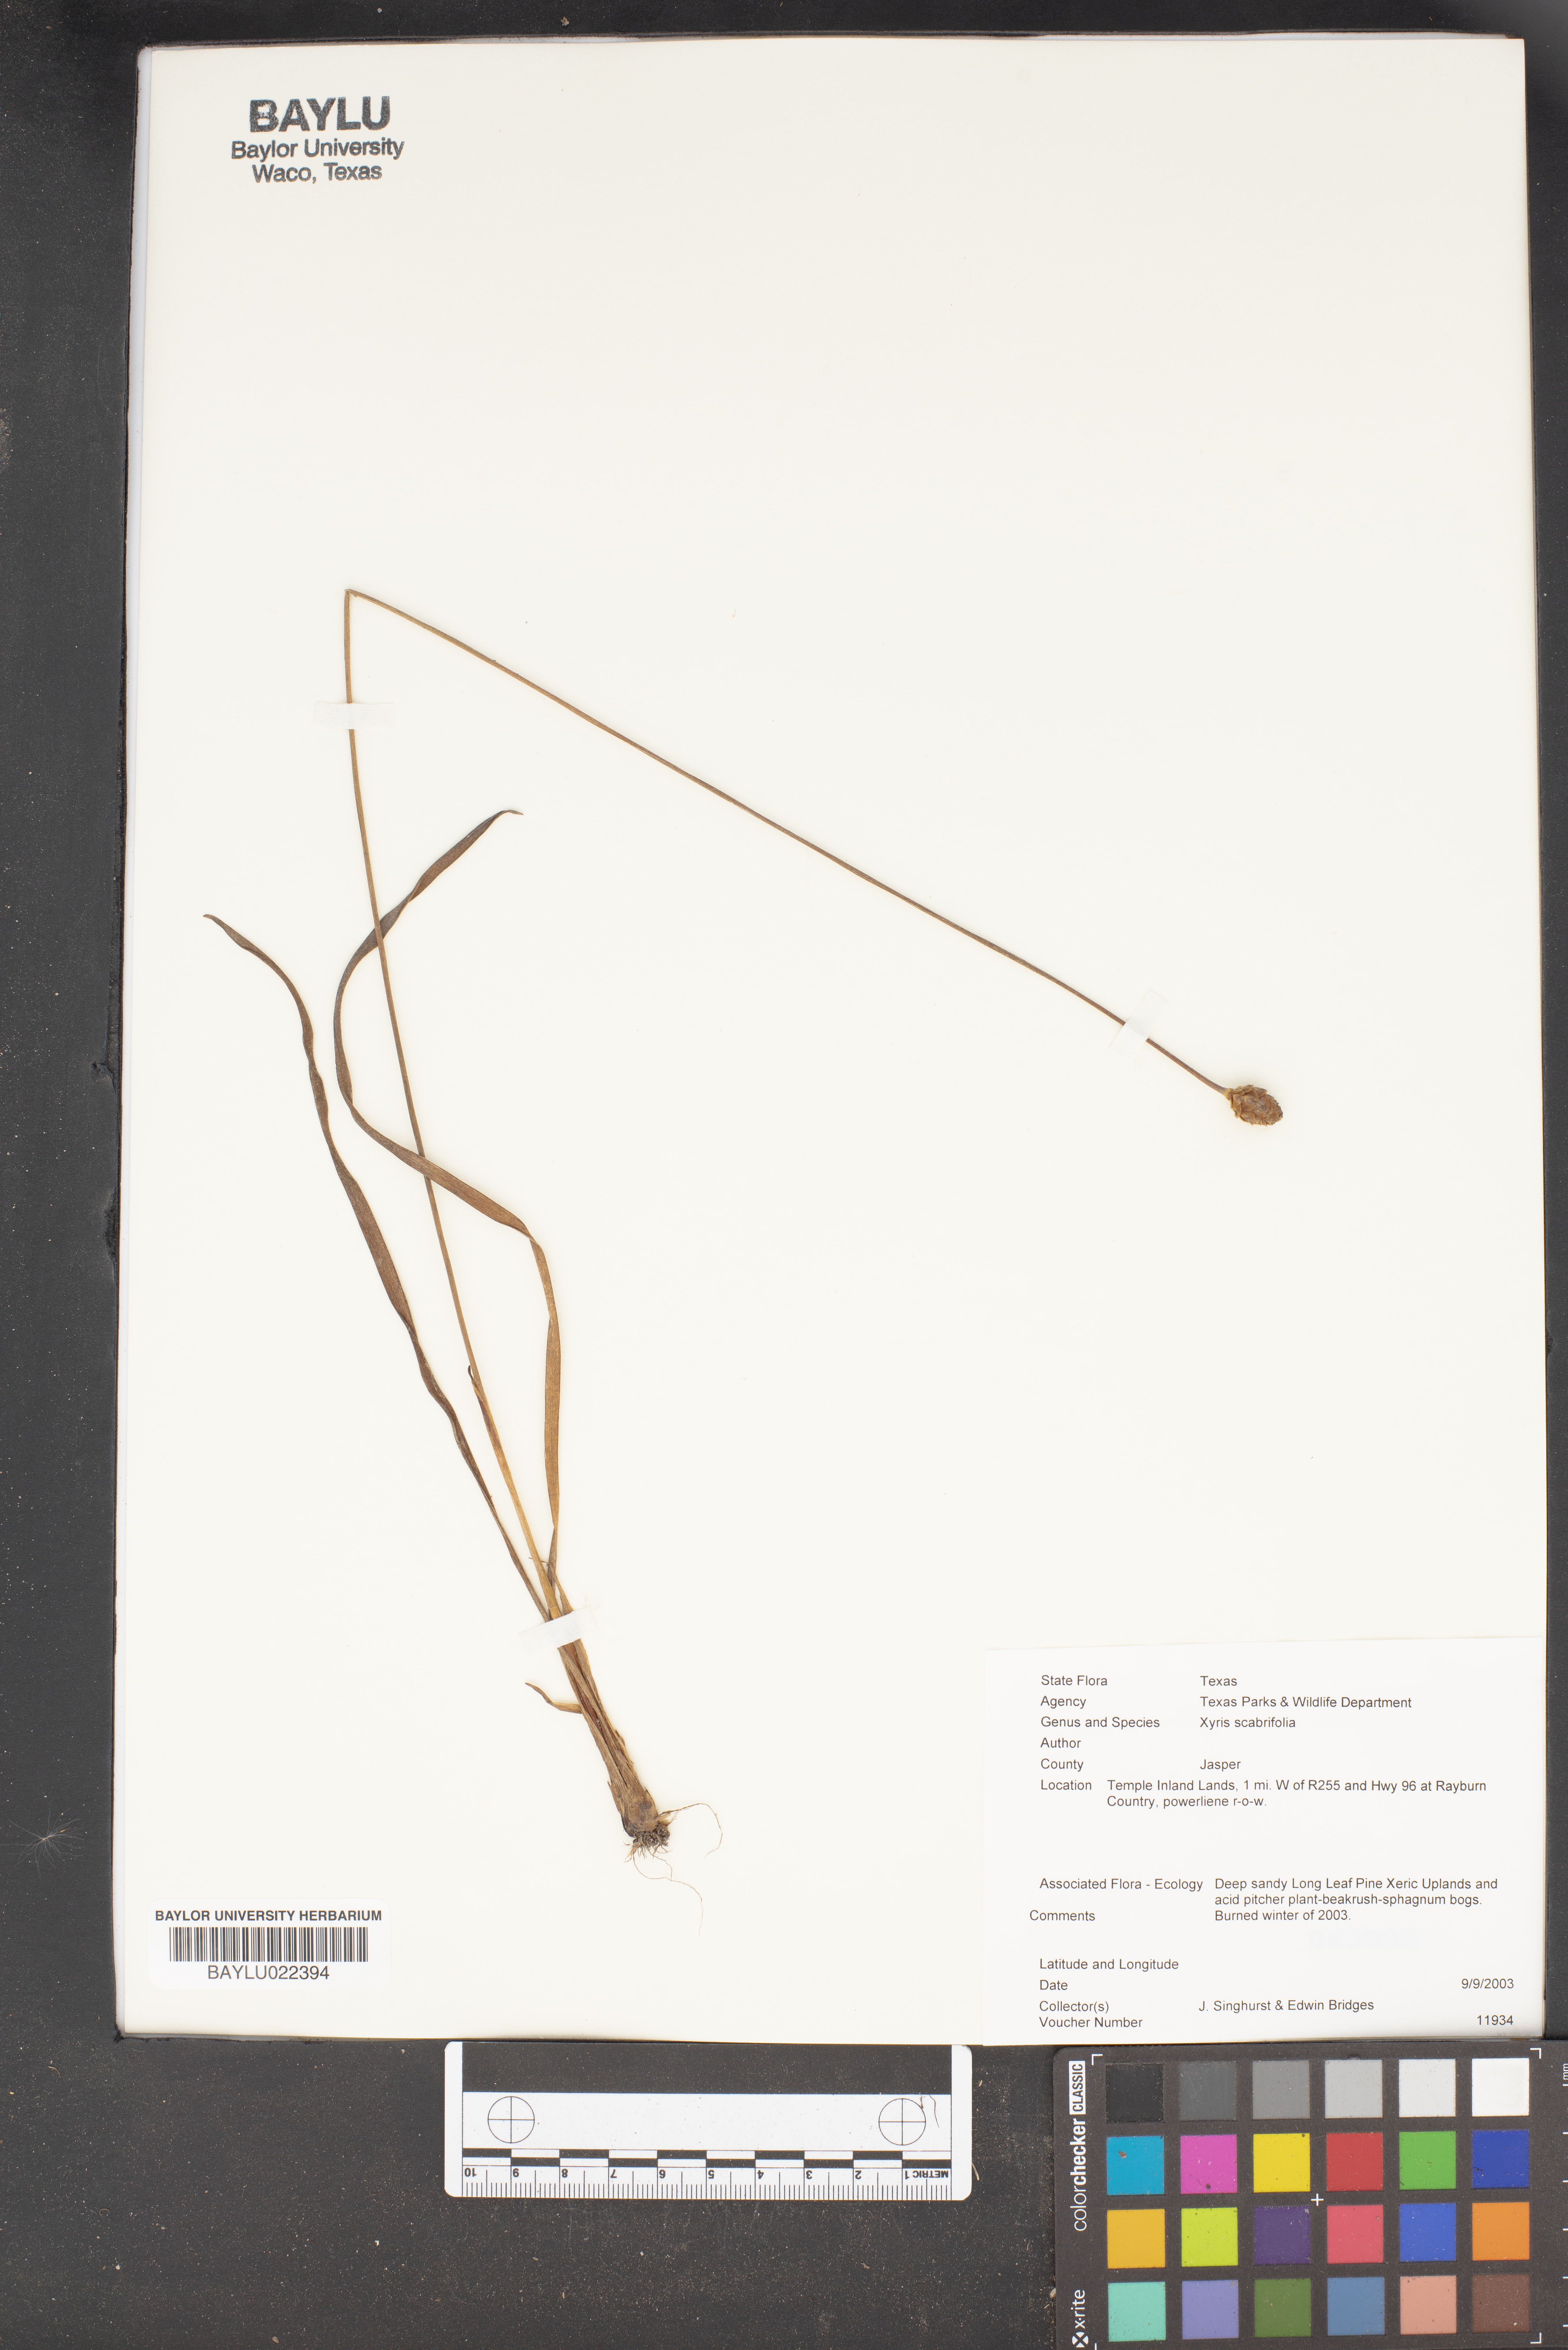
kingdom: Plantae
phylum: Tracheophyta
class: Liliopsida
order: Poales
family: Xyridaceae
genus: Xyris
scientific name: Xyris scabrifolia
